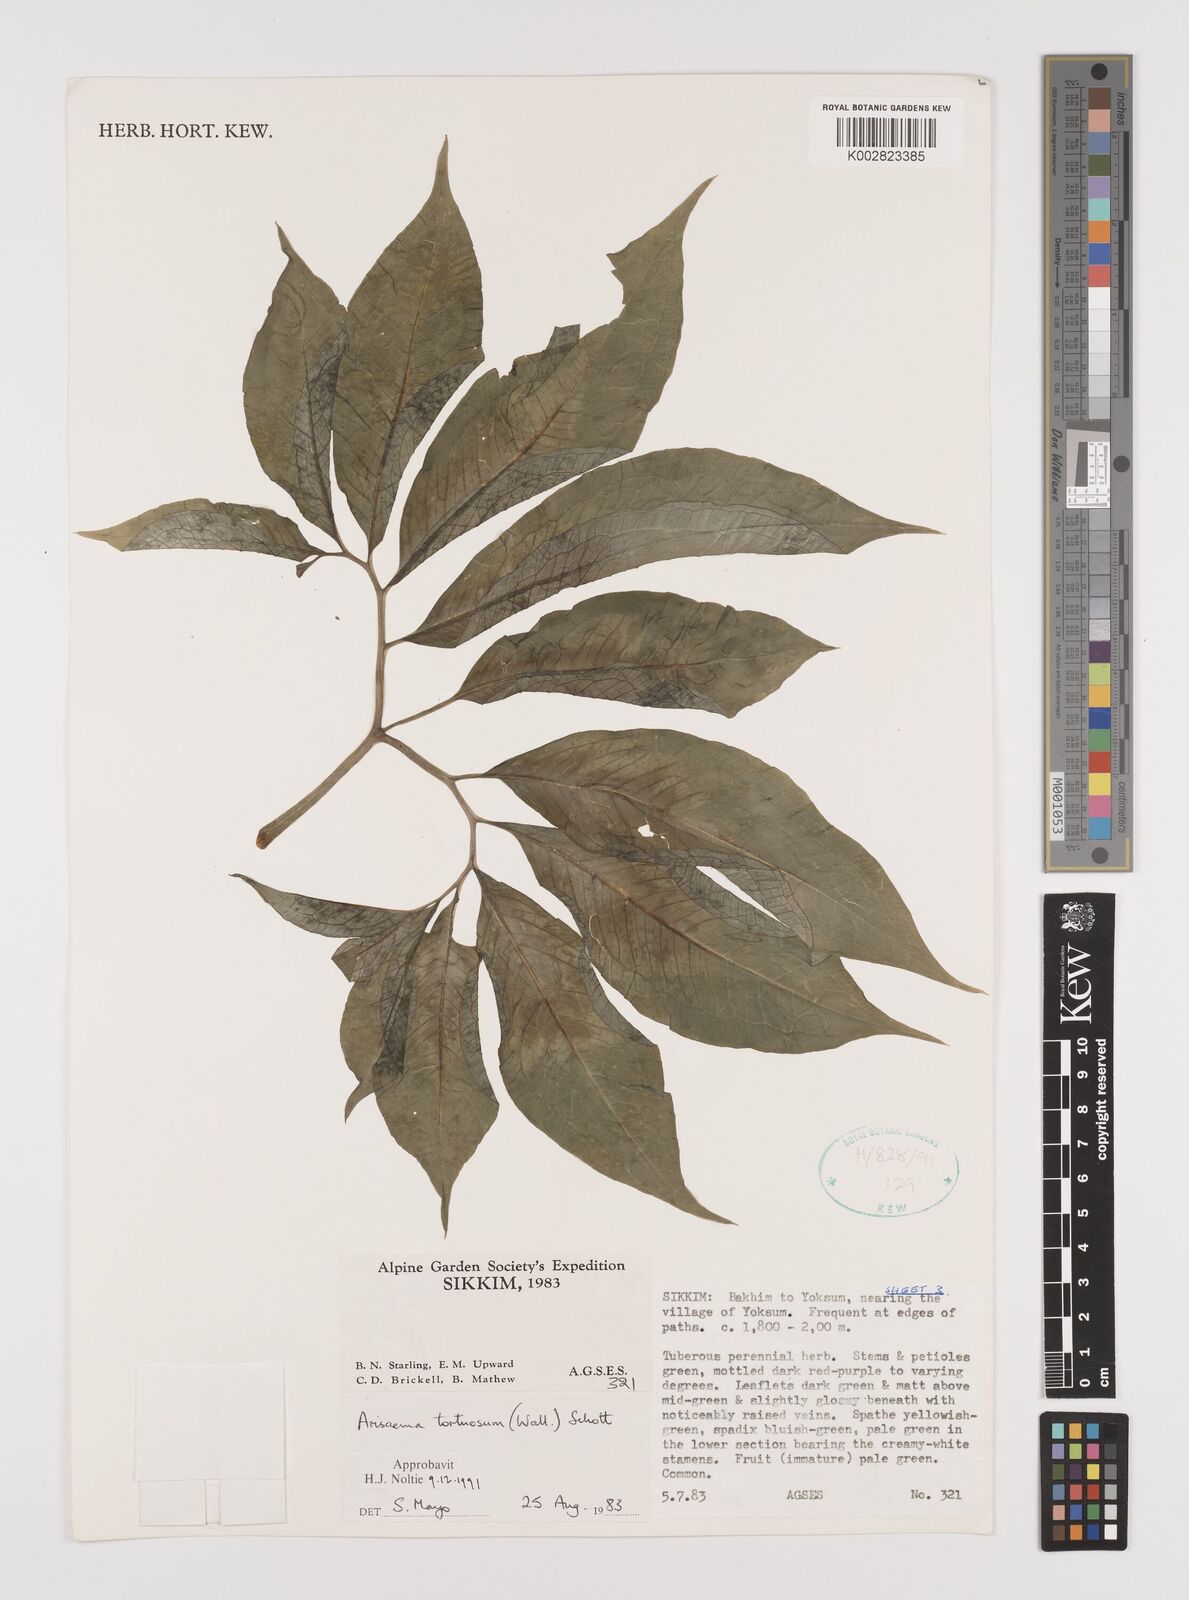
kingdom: Plantae
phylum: Tracheophyta
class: Liliopsida
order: Alismatales
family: Araceae
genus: Arisaema
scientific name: Arisaema tortuosum
